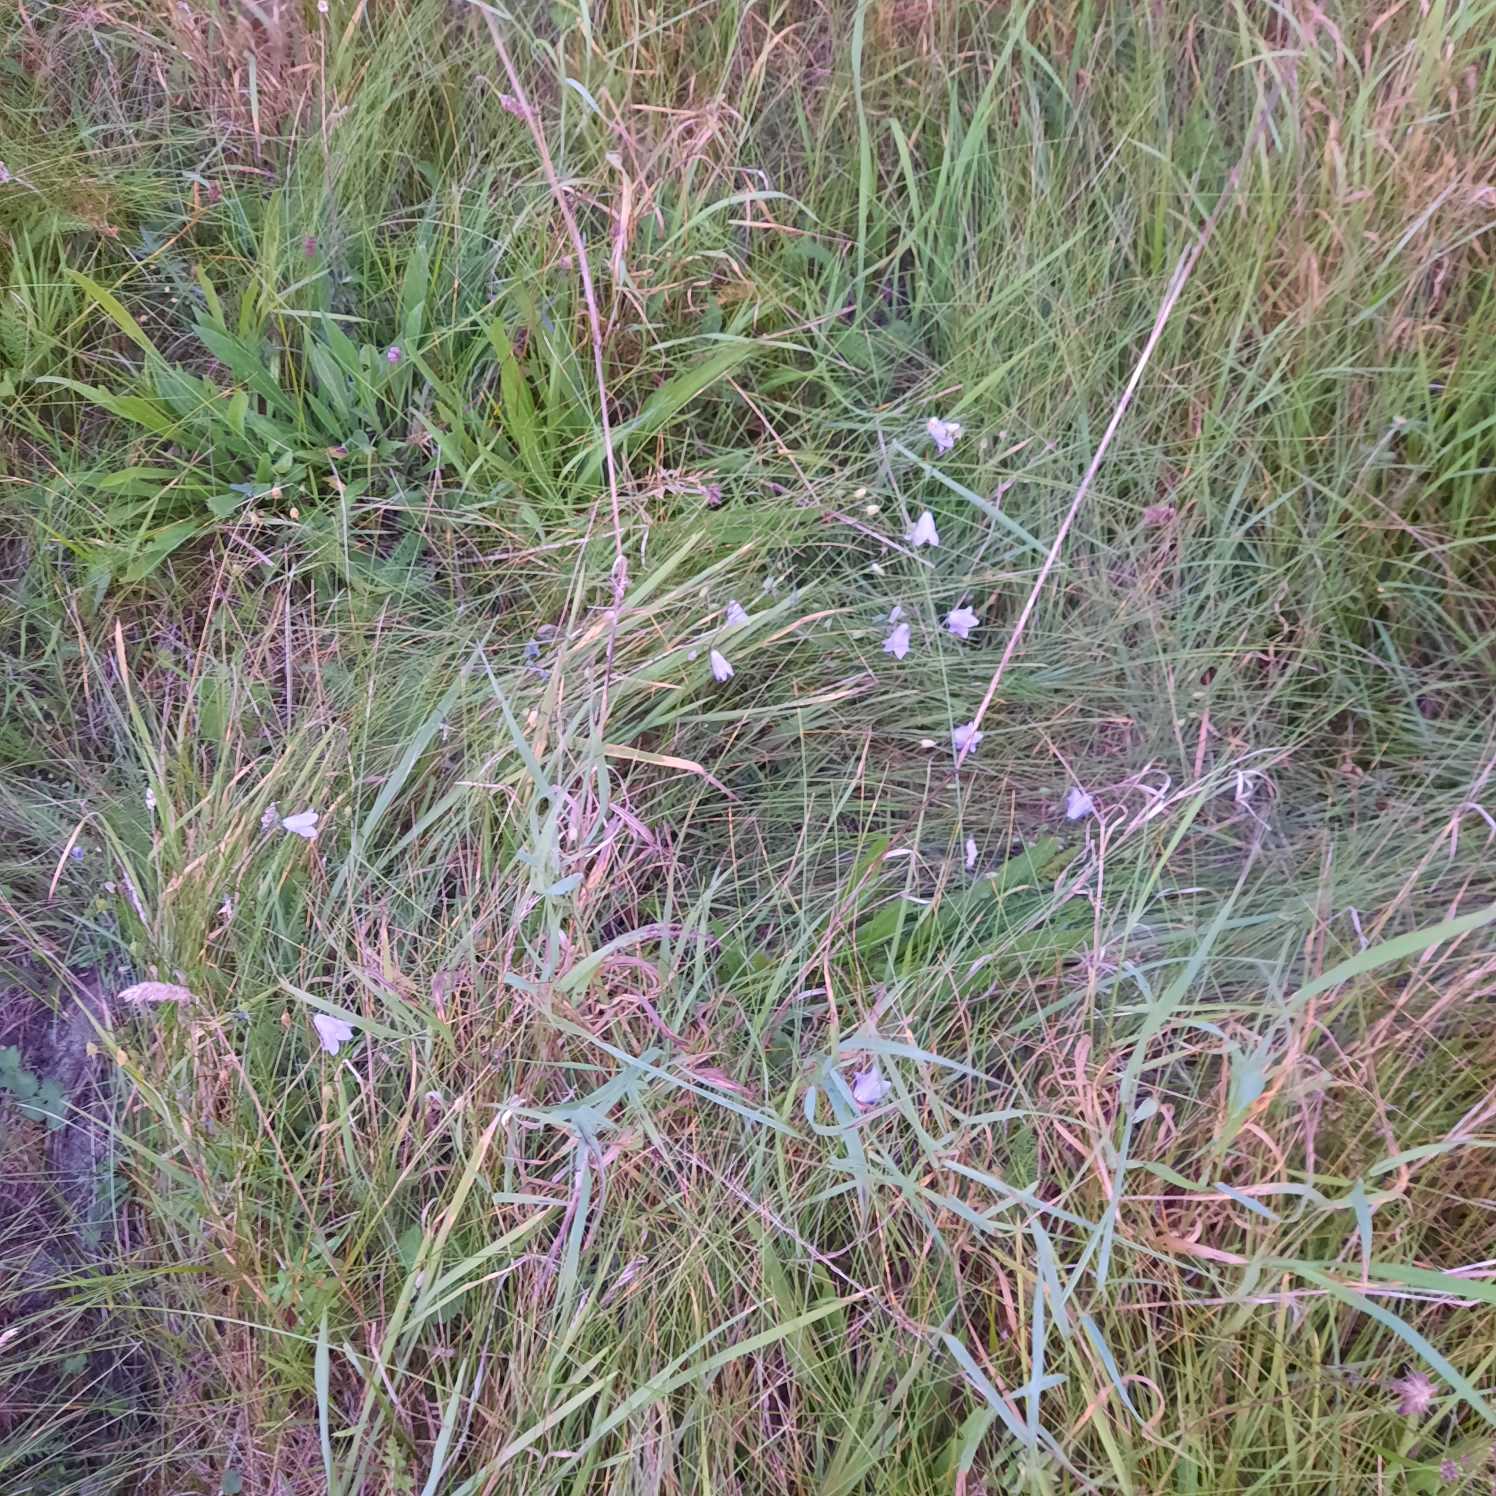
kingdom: Plantae
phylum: Tracheophyta
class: Magnoliopsida
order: Asterales
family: Campanulaceae
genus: Campanula
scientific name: Campanula rotundifolia
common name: Liden klokke
